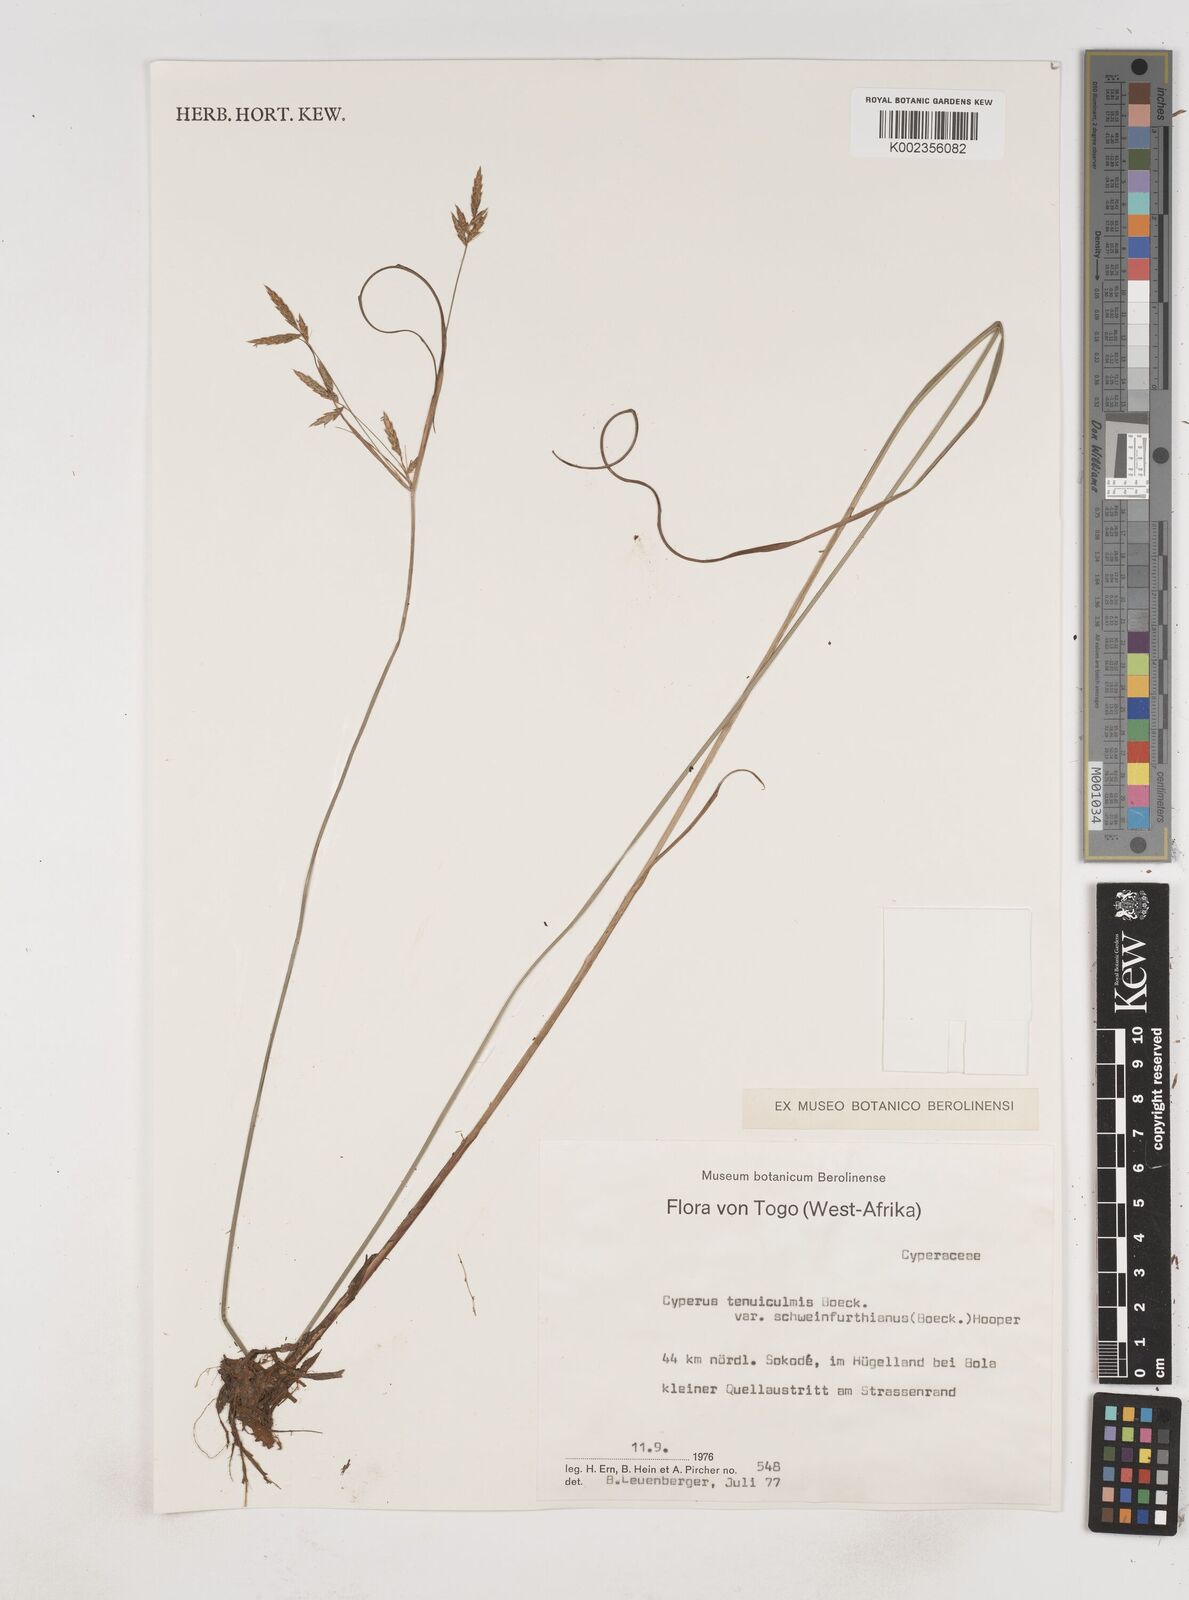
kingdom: Plantae
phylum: Tracheophyta
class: Liliopsida
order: Poales
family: Cyperaceae
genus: Cyperus
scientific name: Cyperus tenuiculmis
